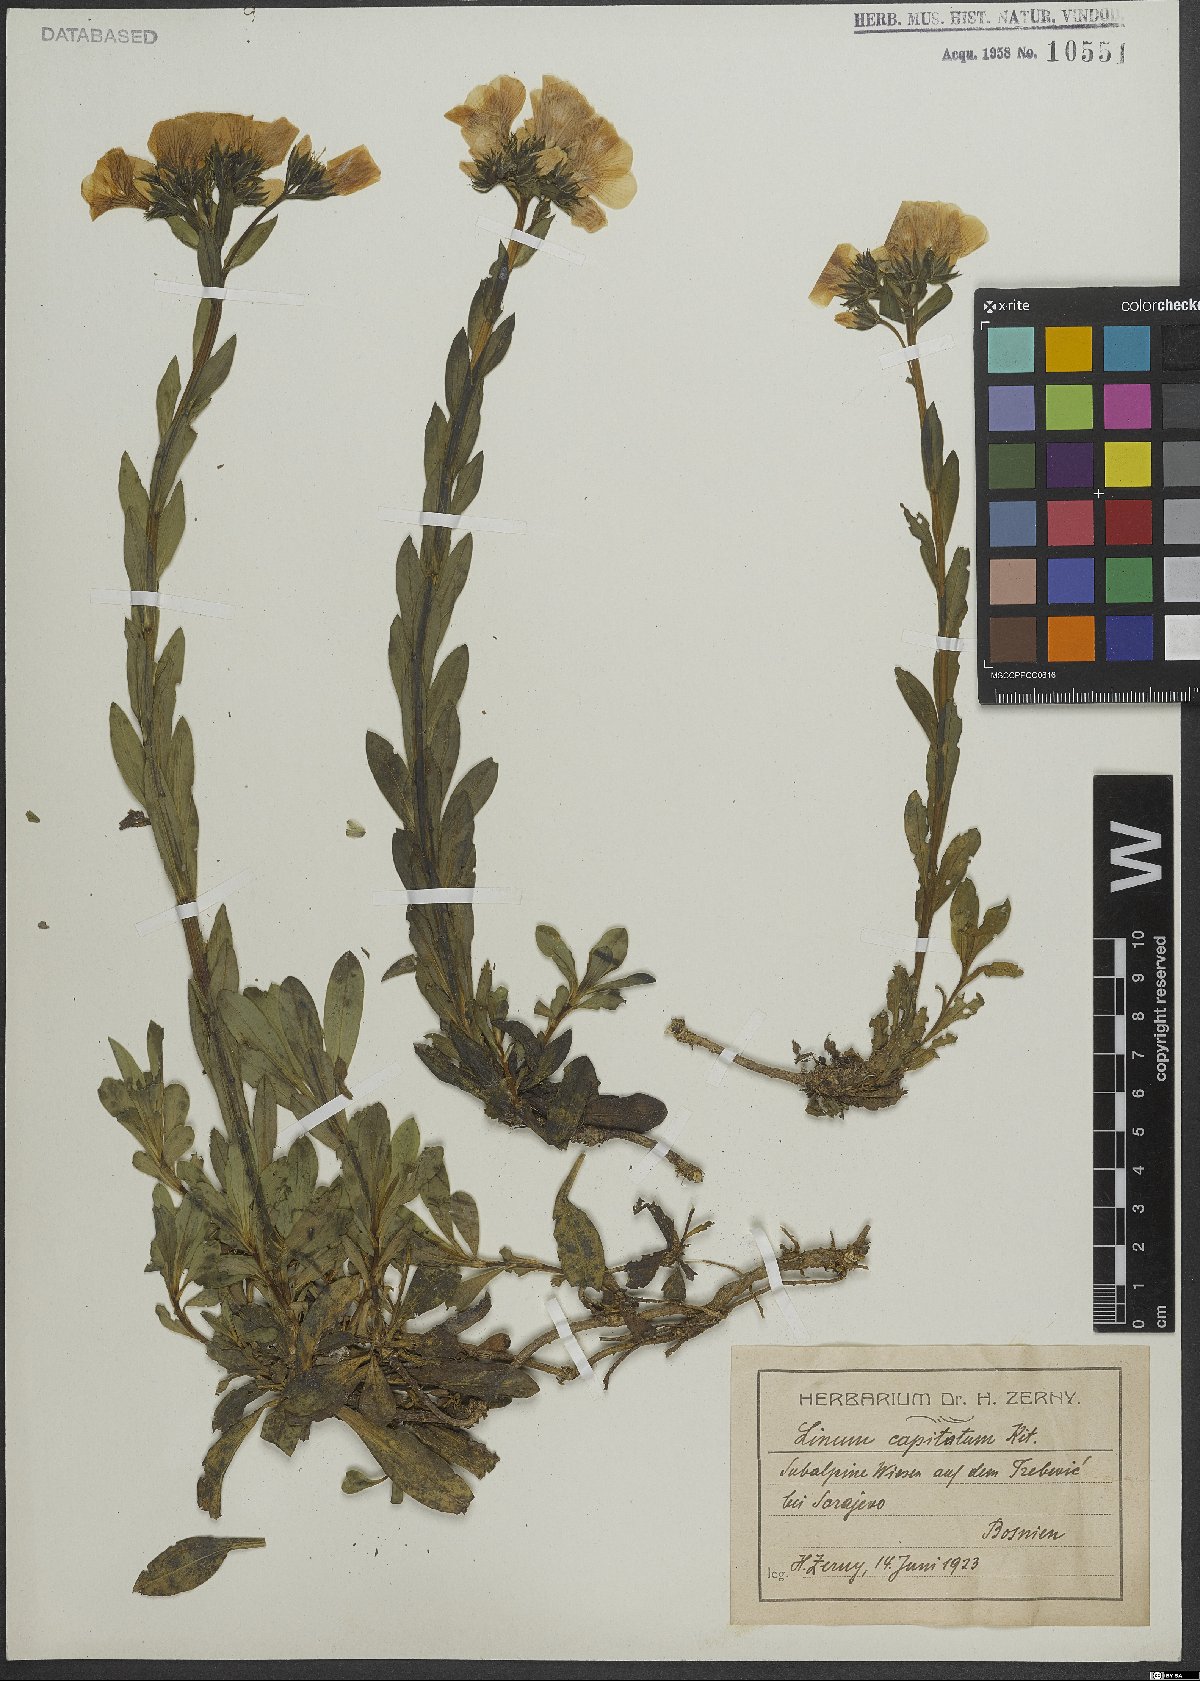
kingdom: Plantae
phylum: Tracheophyta
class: Magnoliopsida
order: Malpighiales
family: Linaceae
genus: Linum
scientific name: Linum capitatum
